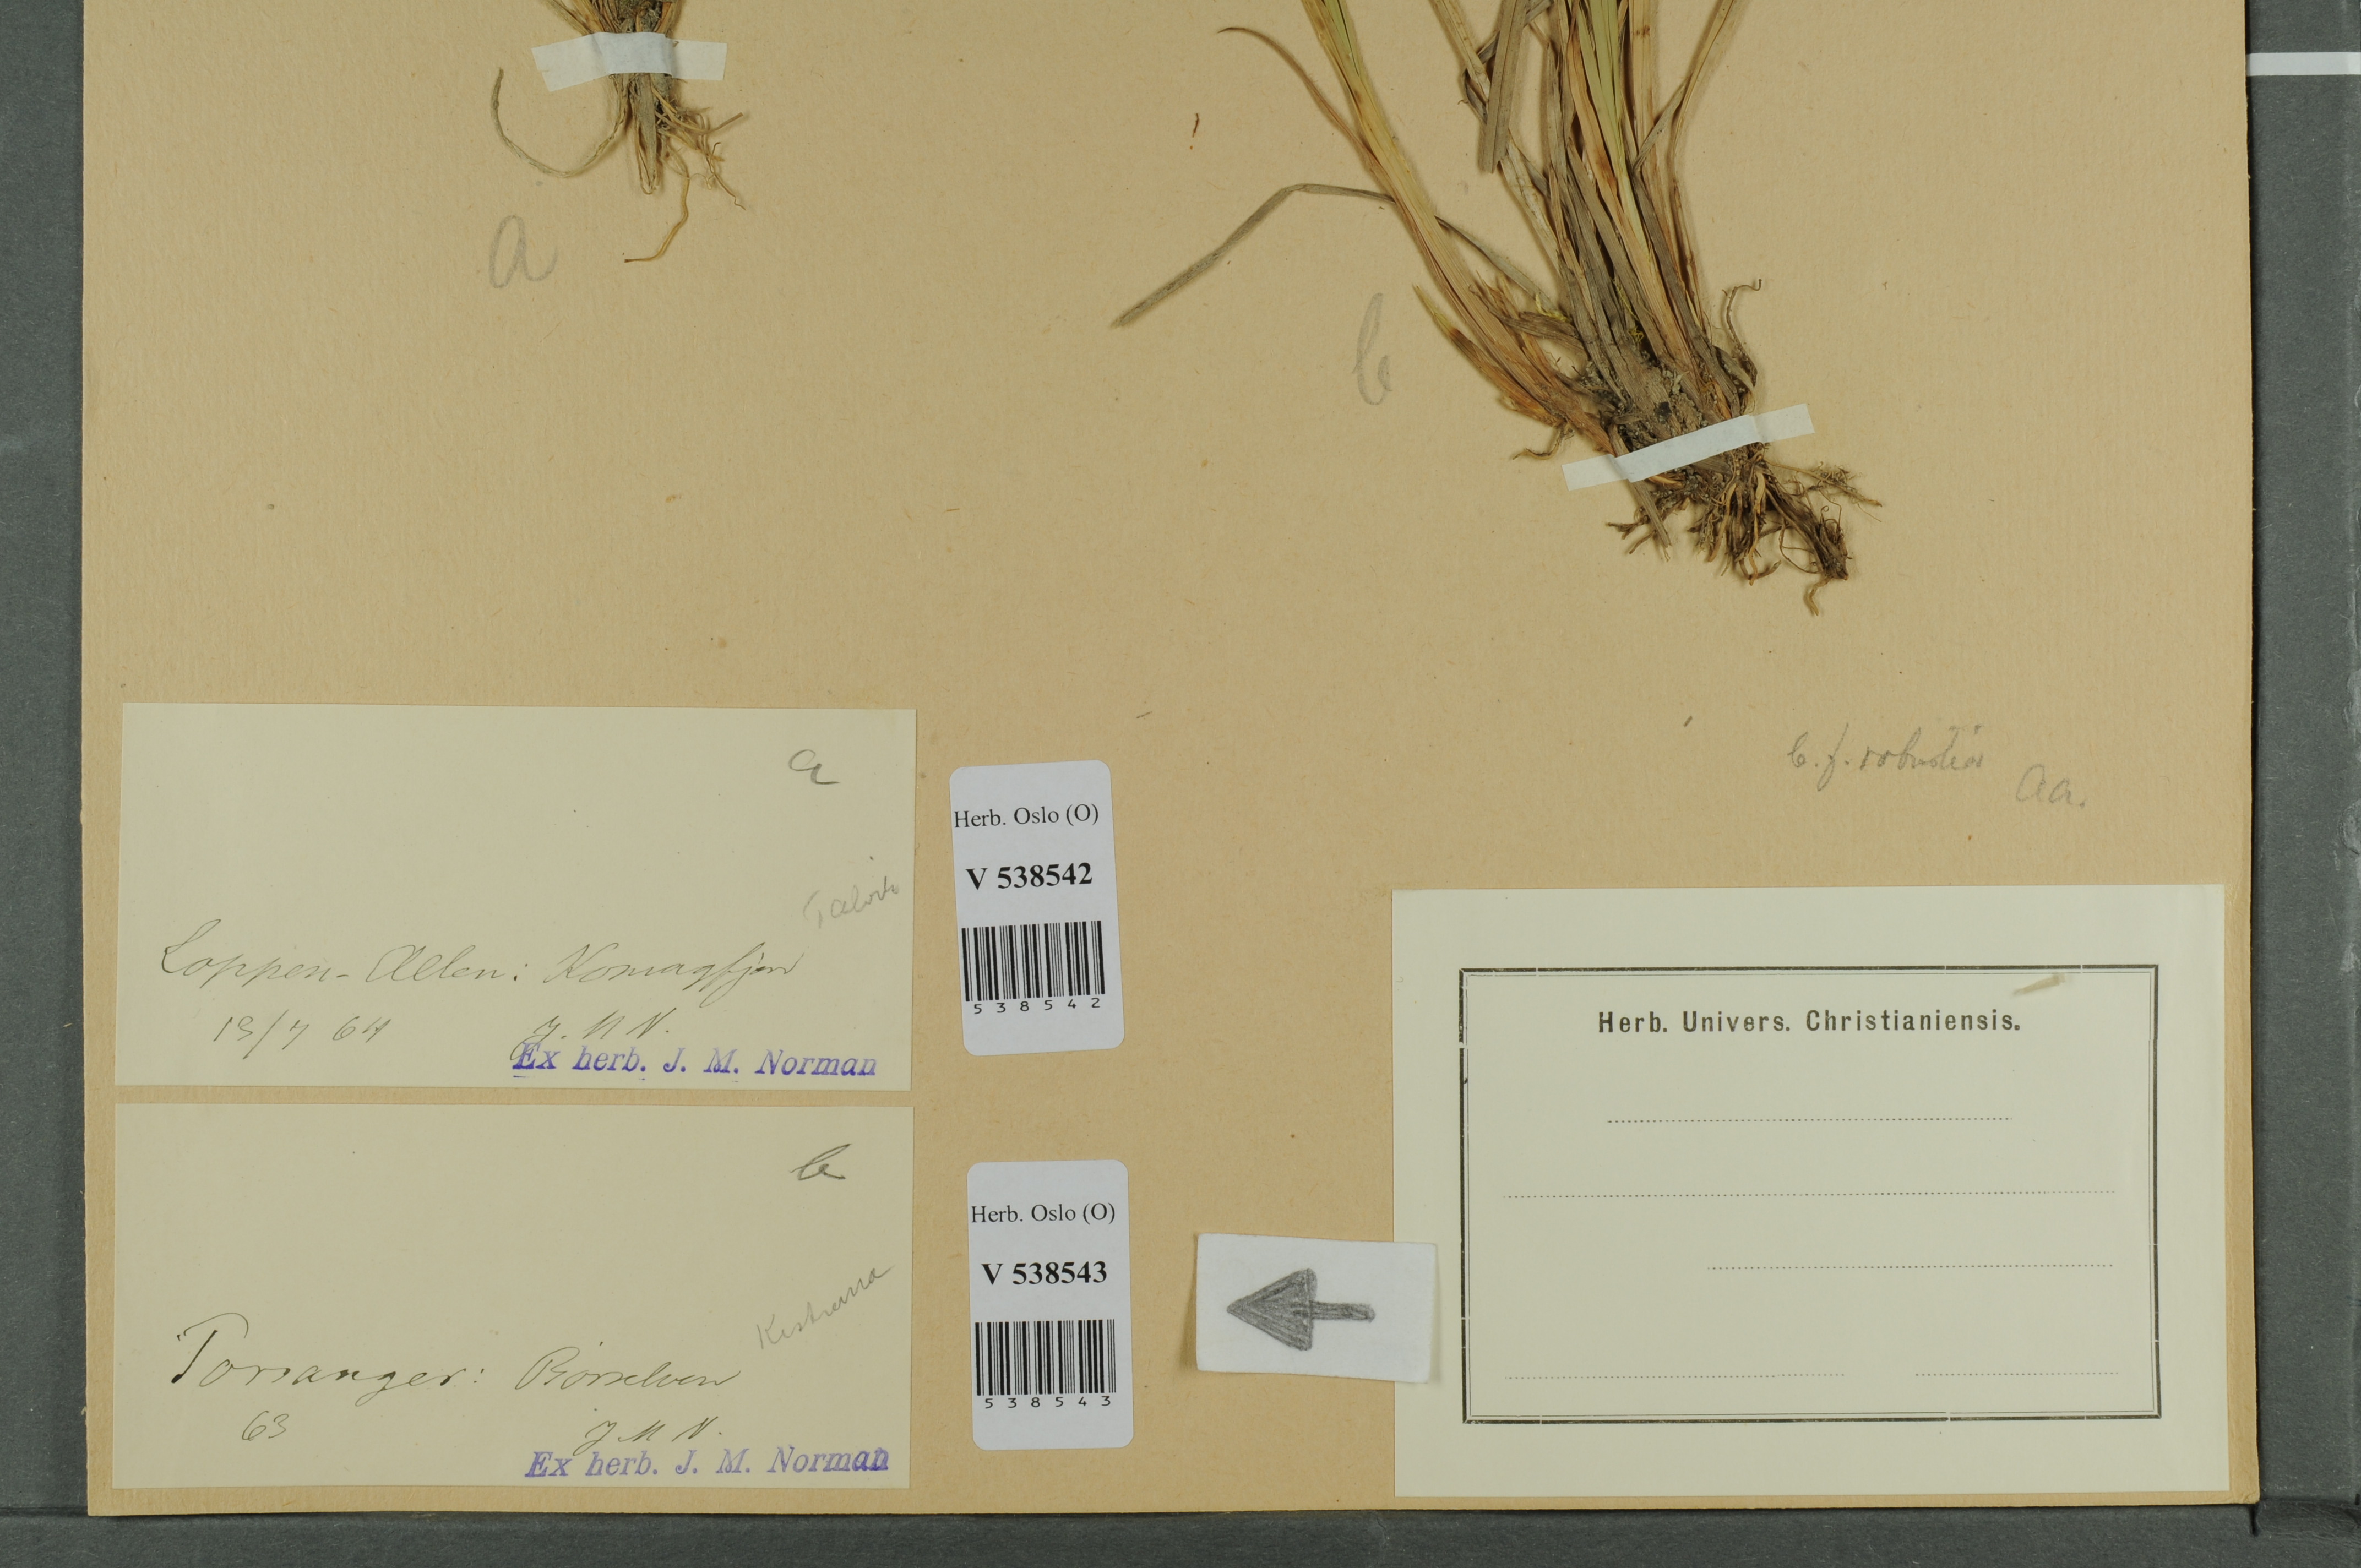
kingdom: Plantae
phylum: Tracheophyta
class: Liliopsida
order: Poales
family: Cyperaceae
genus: Carex
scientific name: Carex canescens
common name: White sedge
